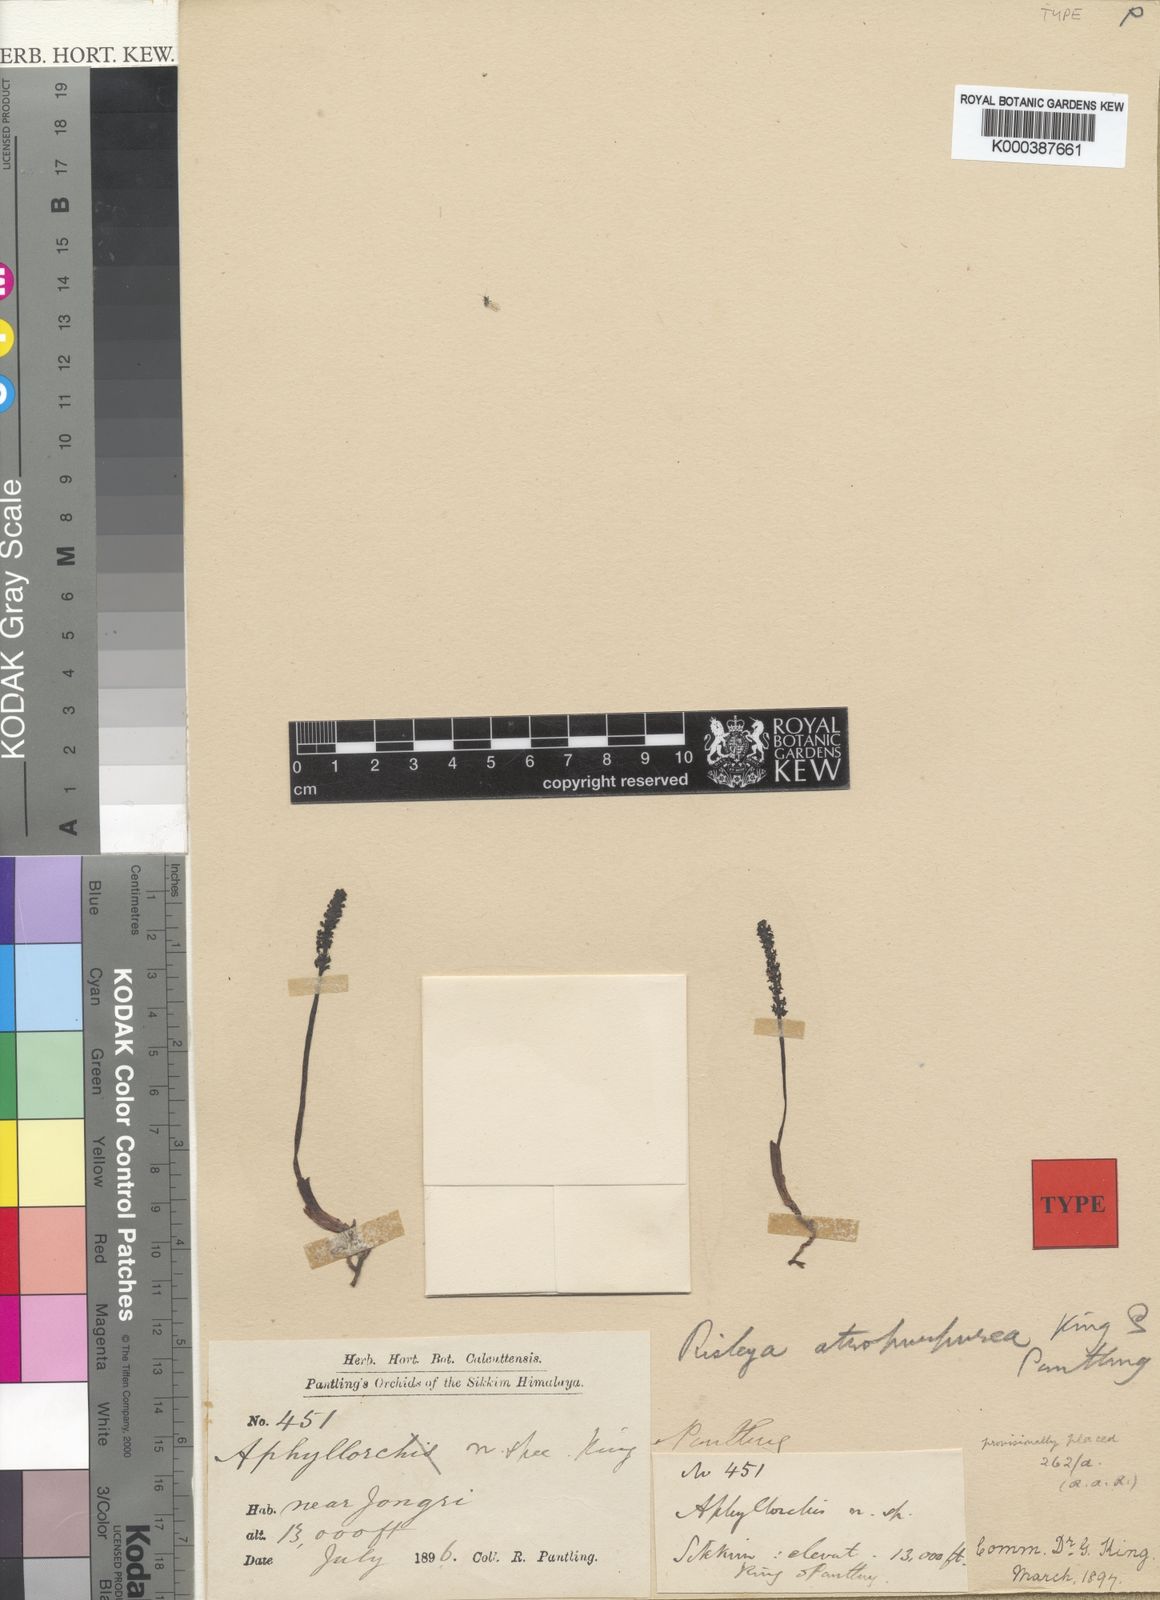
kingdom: Plantae
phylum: Tracheophyta
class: Liliopsida
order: Asparagales
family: Orchidaceae
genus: Risleya
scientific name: Risleya atropurpurea
